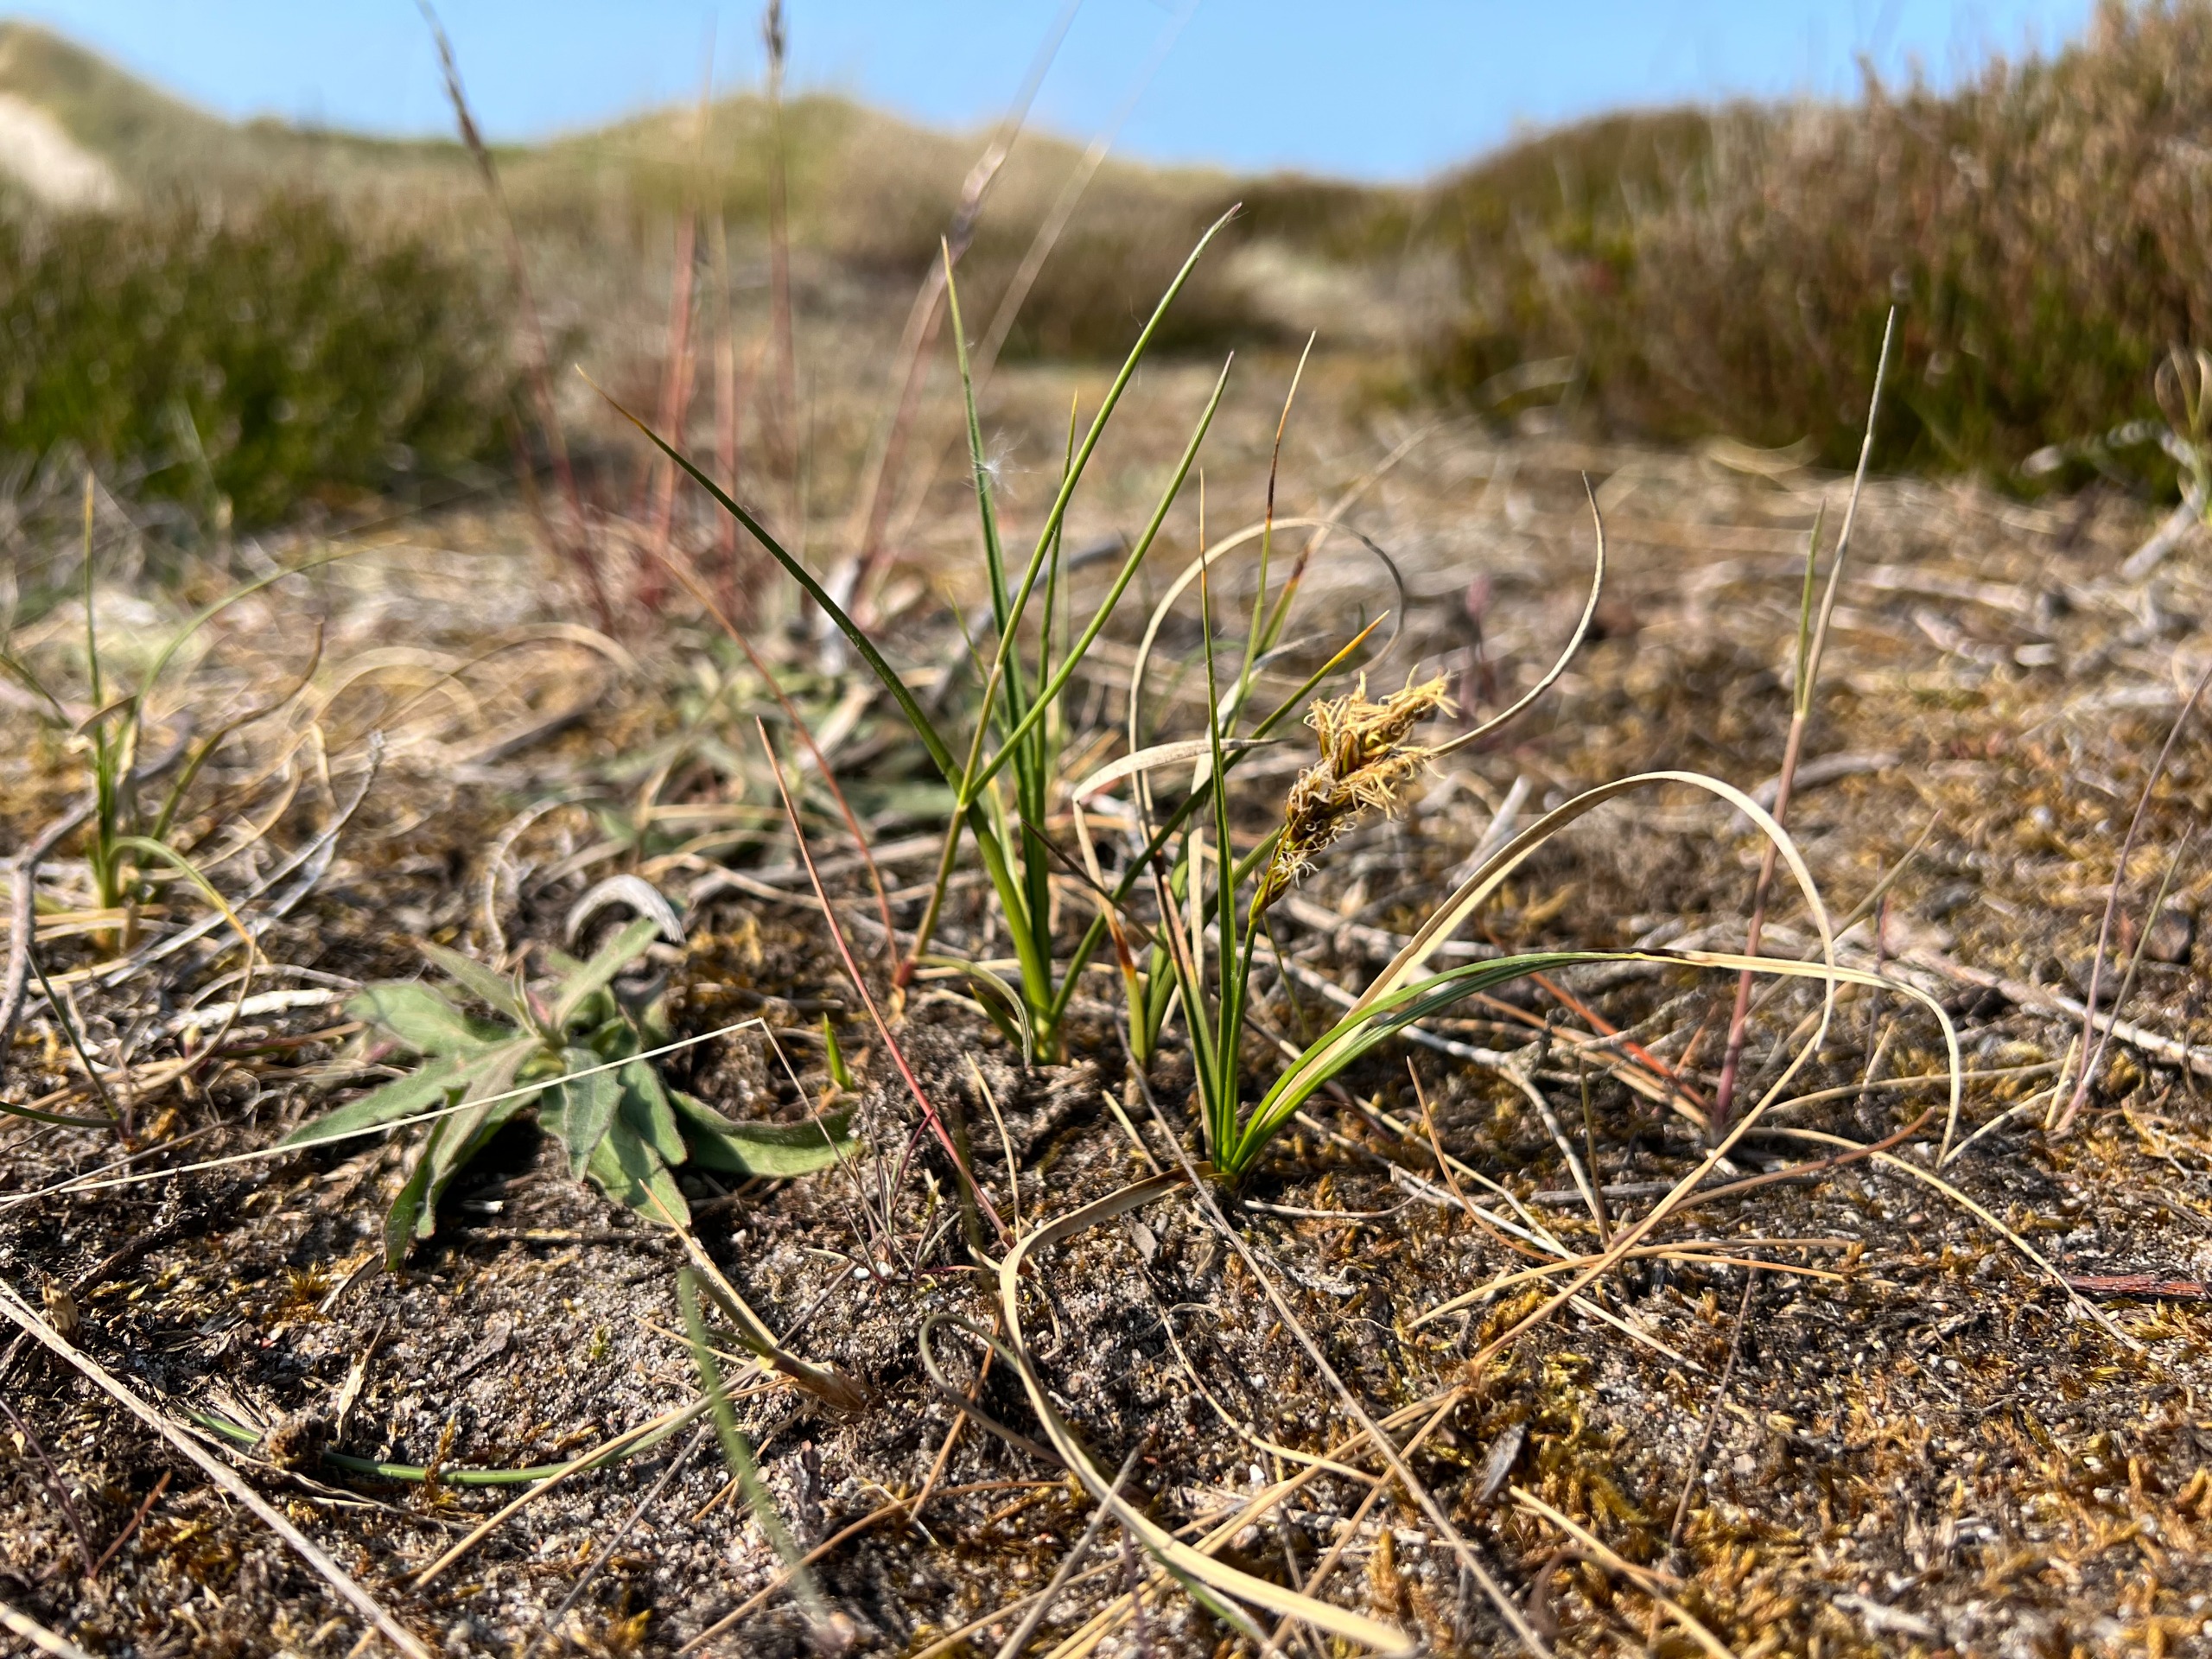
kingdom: Plantae
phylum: Tracheophyta
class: Liliopsida
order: Poales
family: Cyperaceae
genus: Carex
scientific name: Carex arenaria
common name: Sand-star
